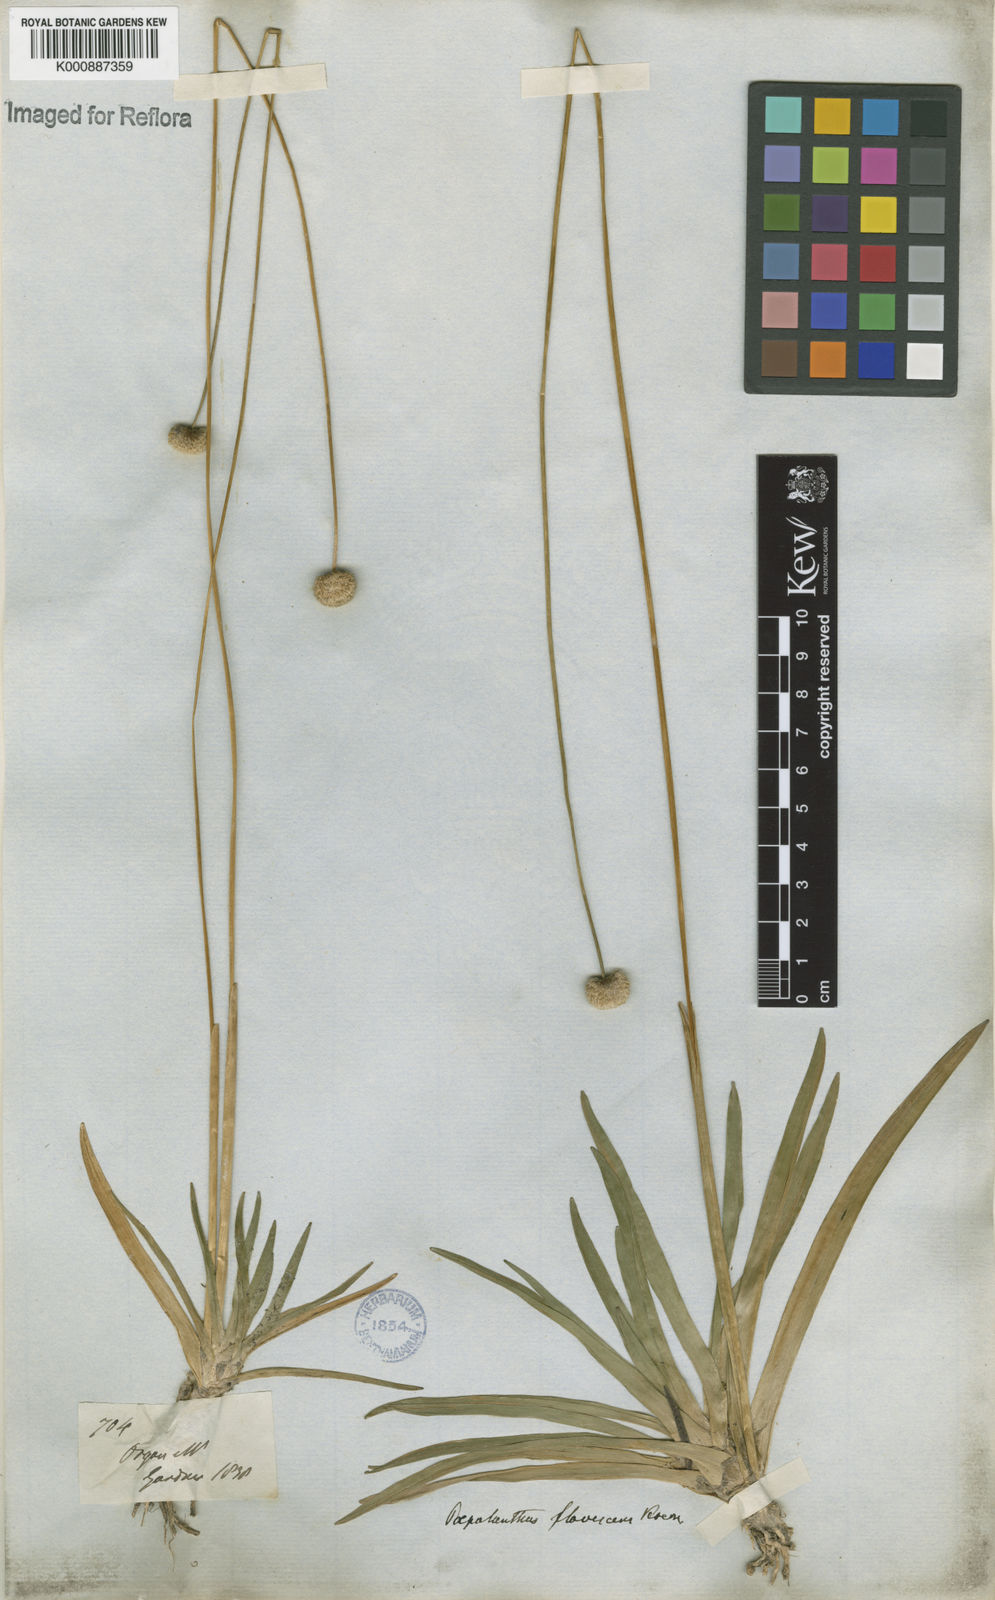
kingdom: Plantae
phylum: Tracheophyta
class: Liliopsida
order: Poales
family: Eriocaulaceae
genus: Leiothrix
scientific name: Leiothrix flavescens
